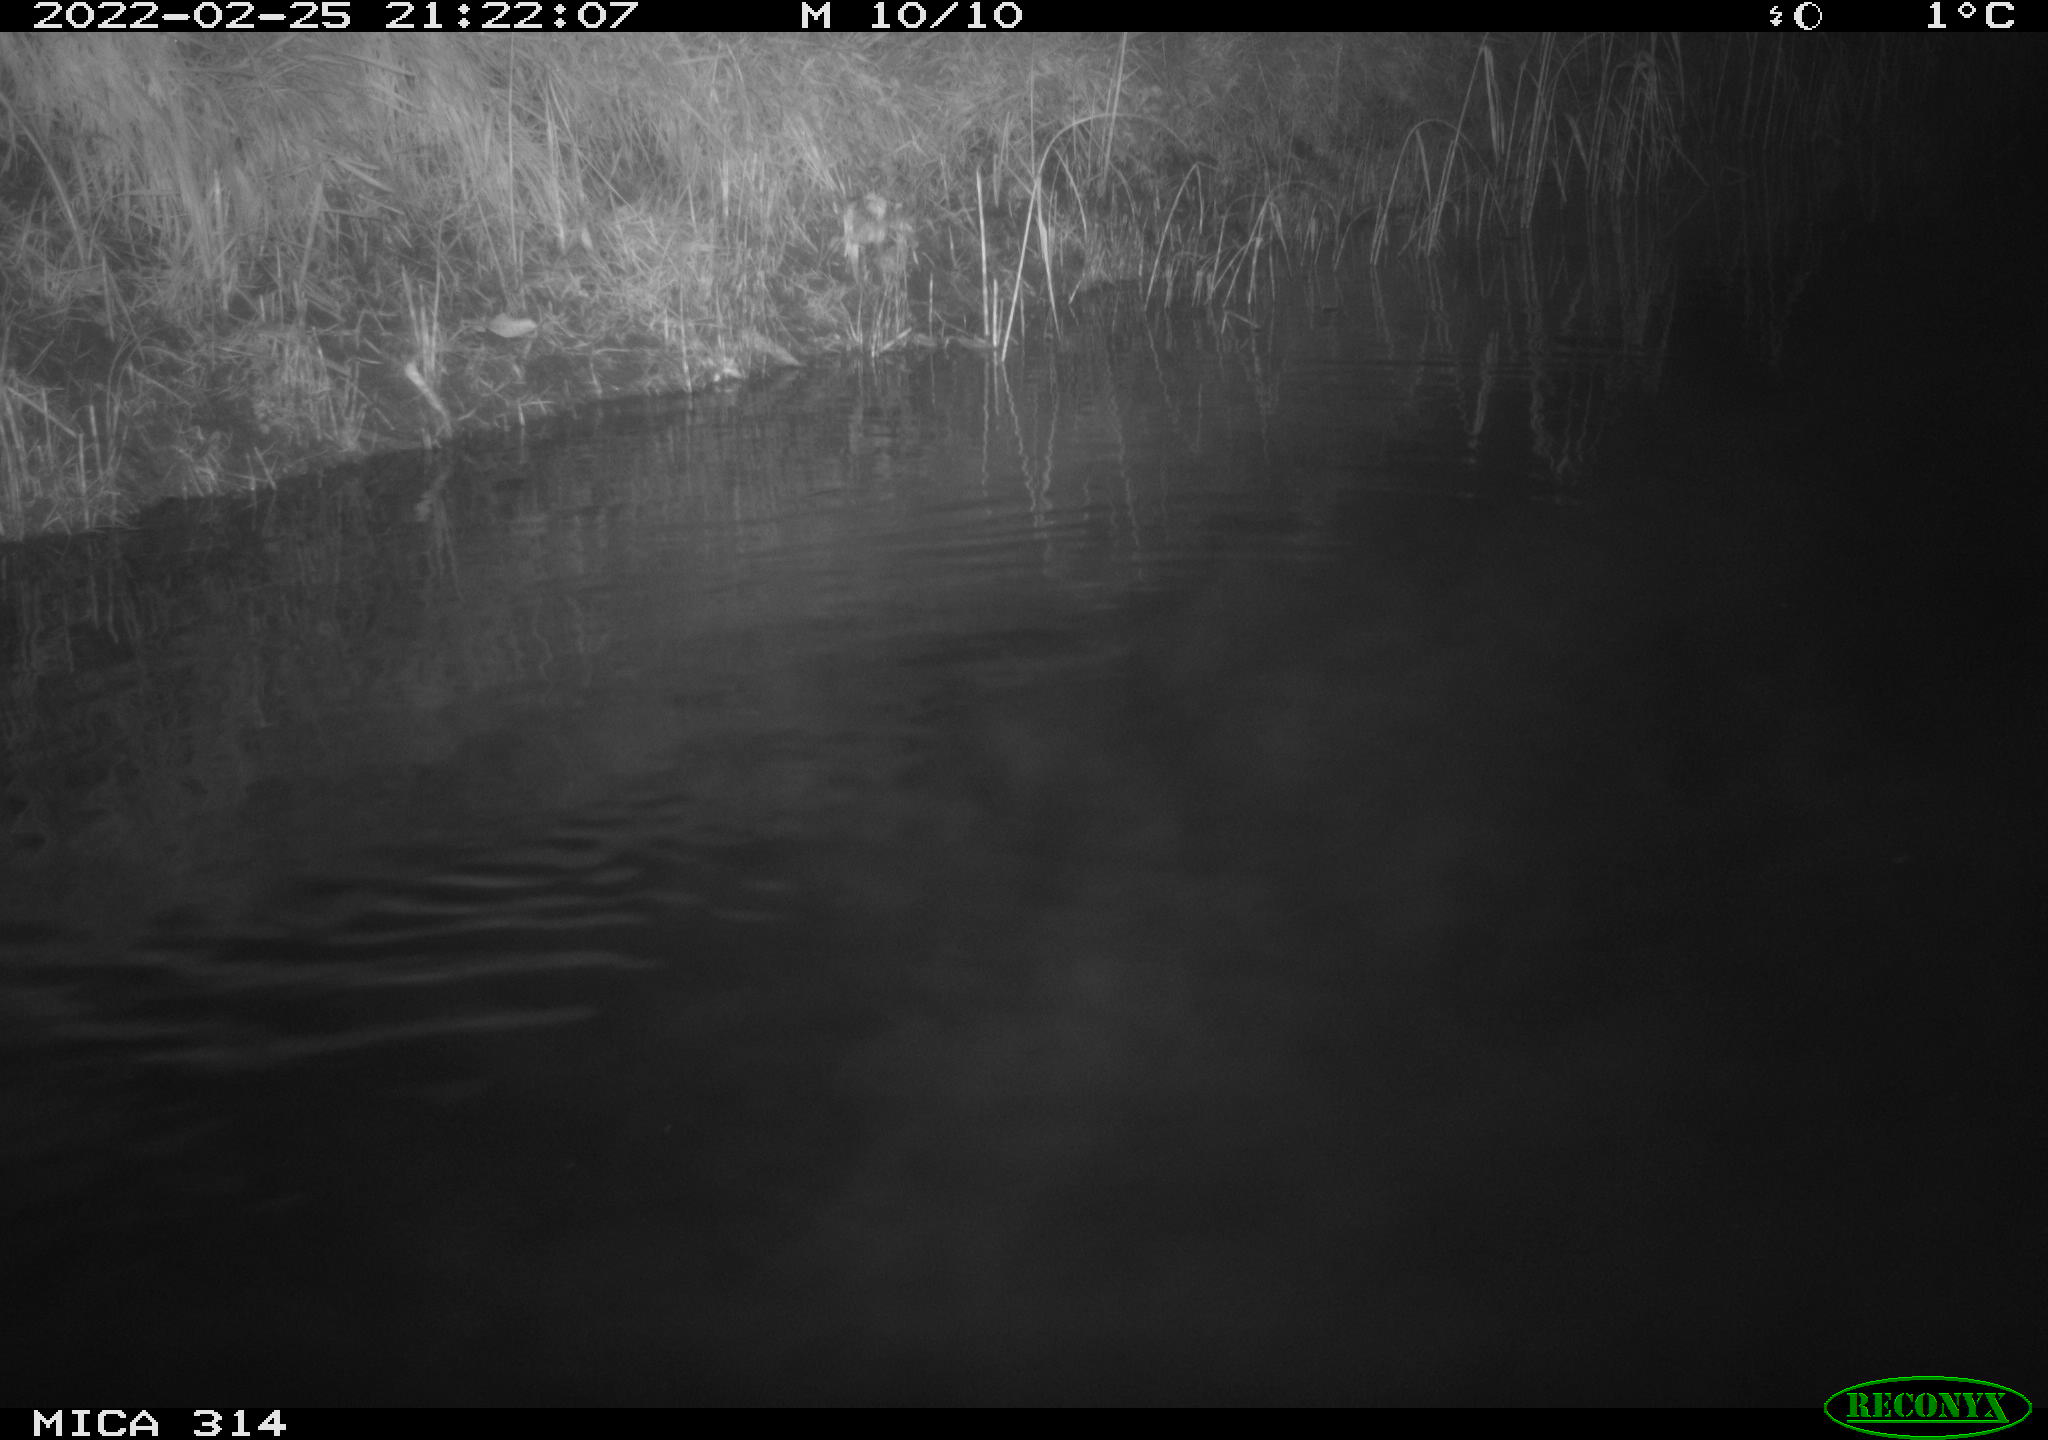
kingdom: Animalia
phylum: Chordata
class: Mammalia
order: Rodentia
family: Muridae
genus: Rattus
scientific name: Rattus norvegicus
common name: Brown rat
